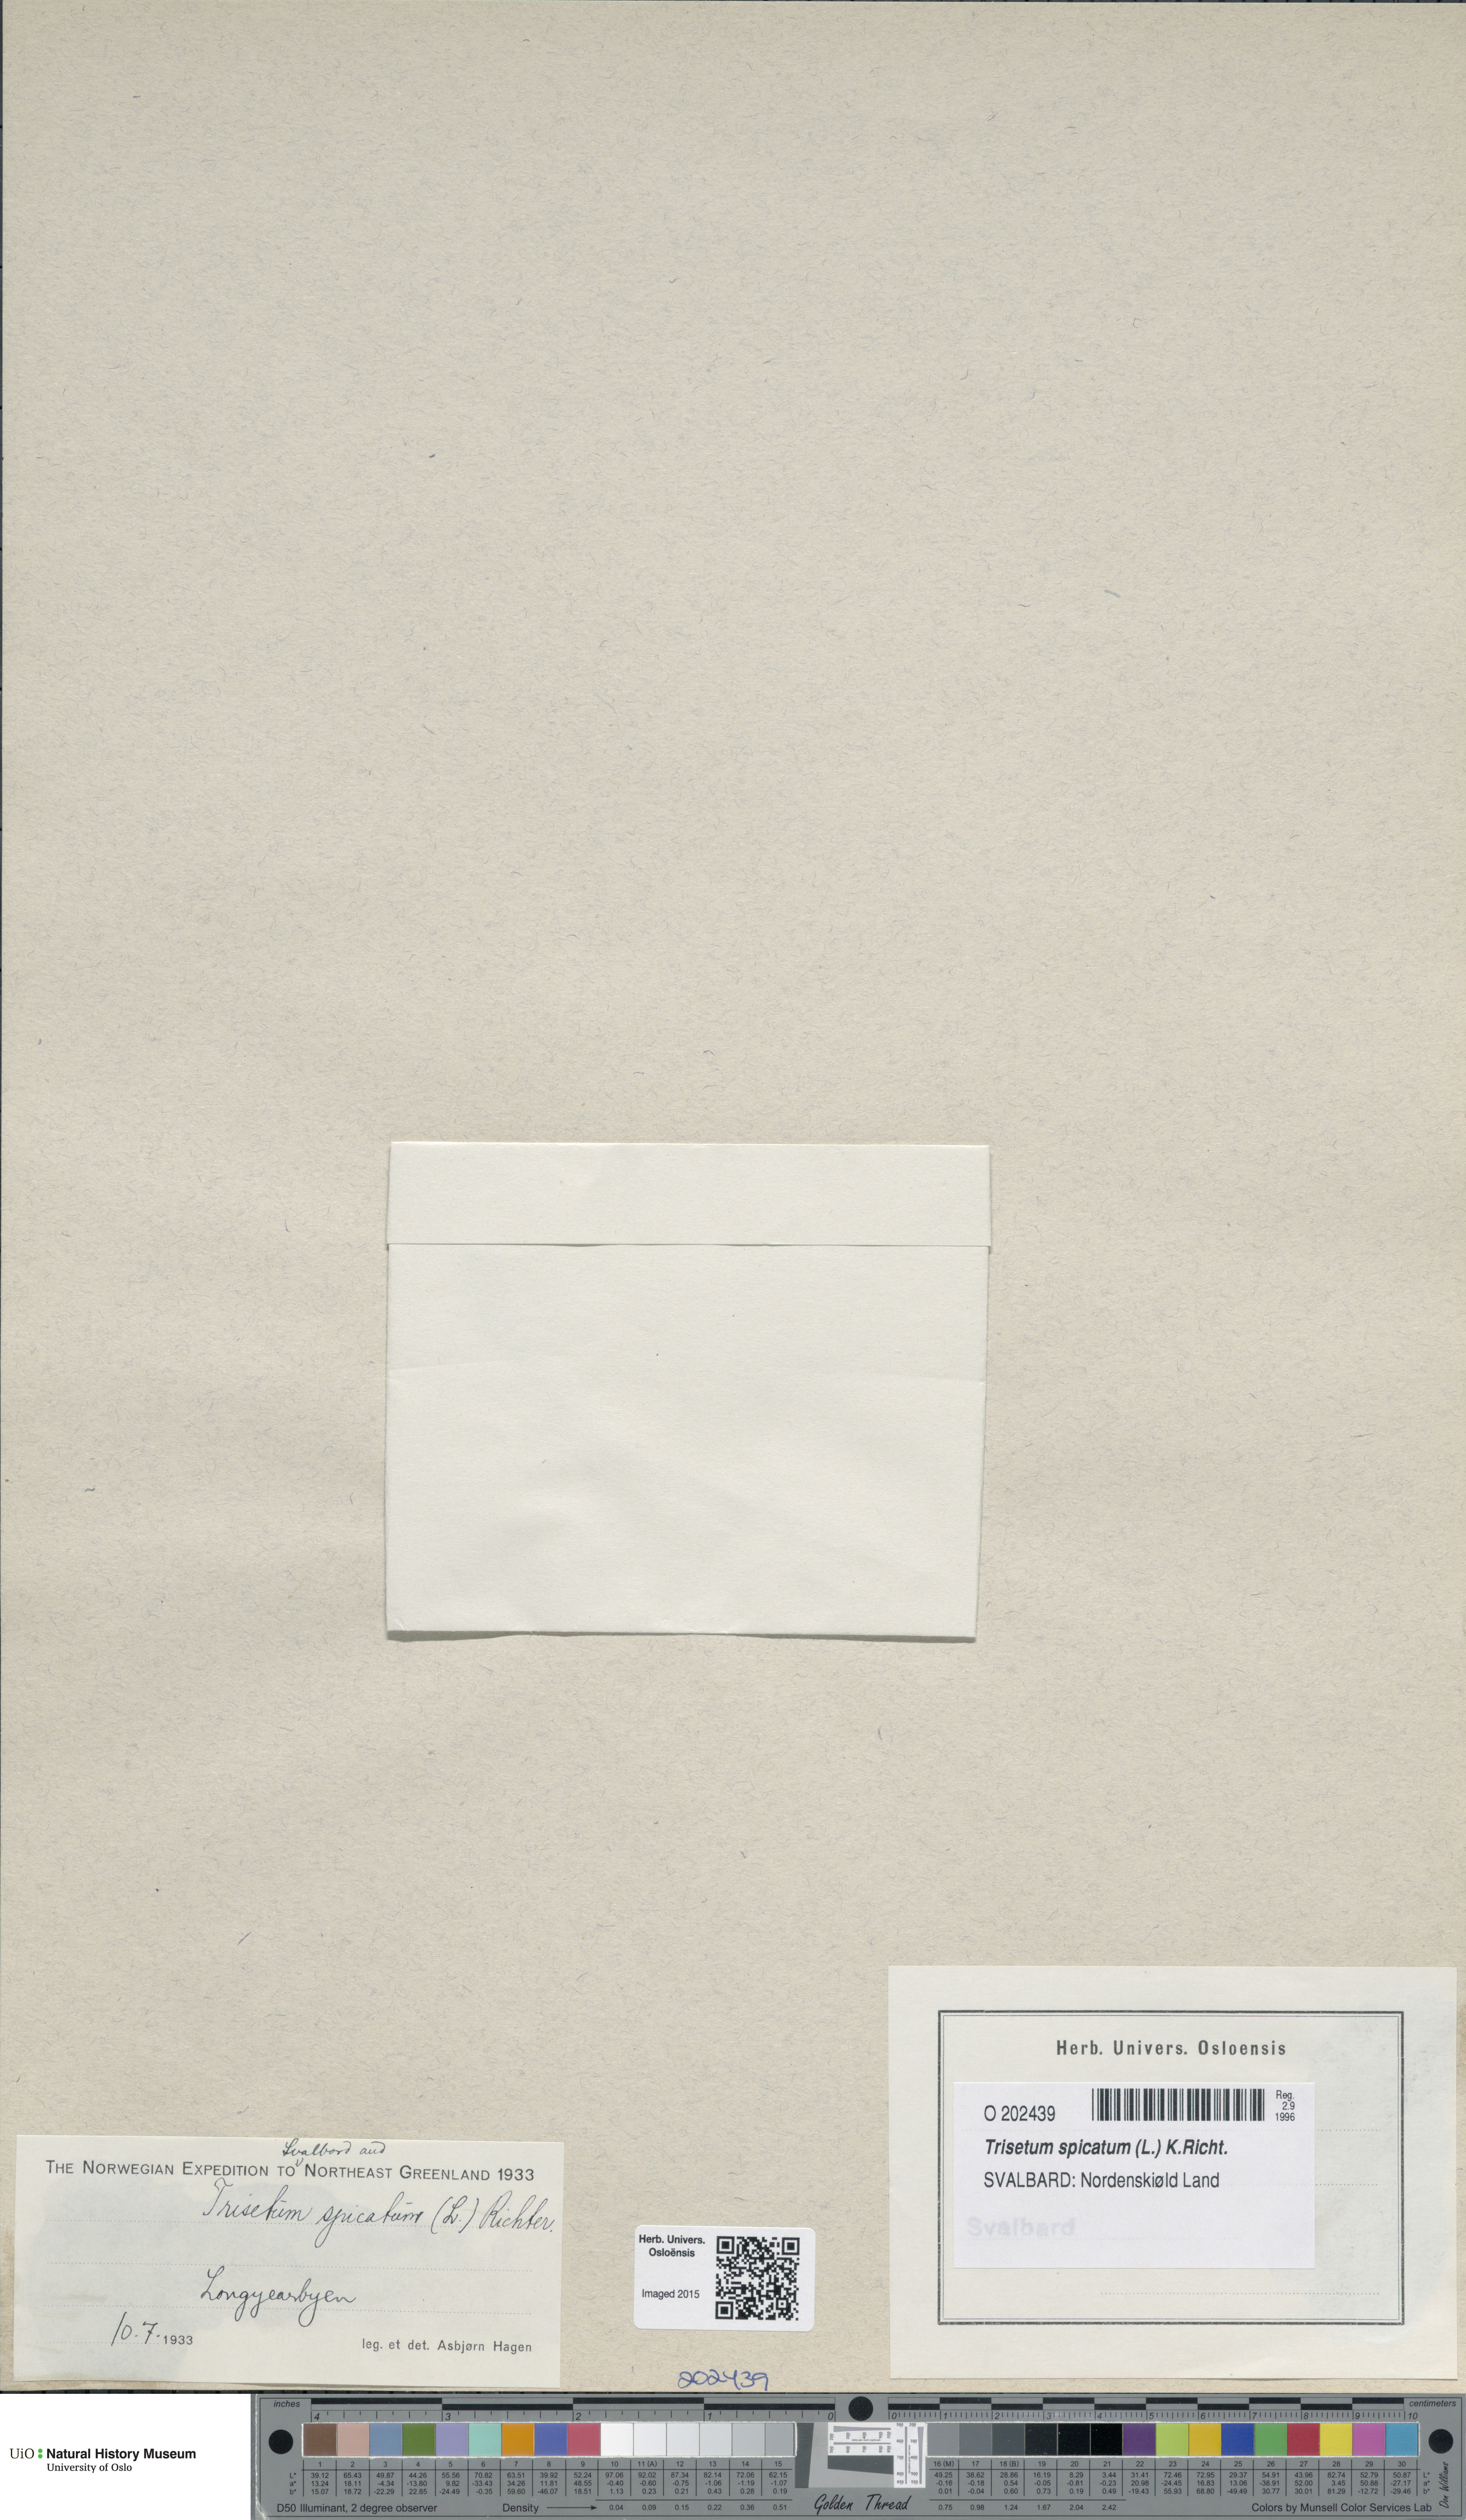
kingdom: Plantae
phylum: Tracheophyta
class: Liliopsida
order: Poales
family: Poaceae
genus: Koeleria
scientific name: Koeleria spicata
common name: Mountain trisetum
